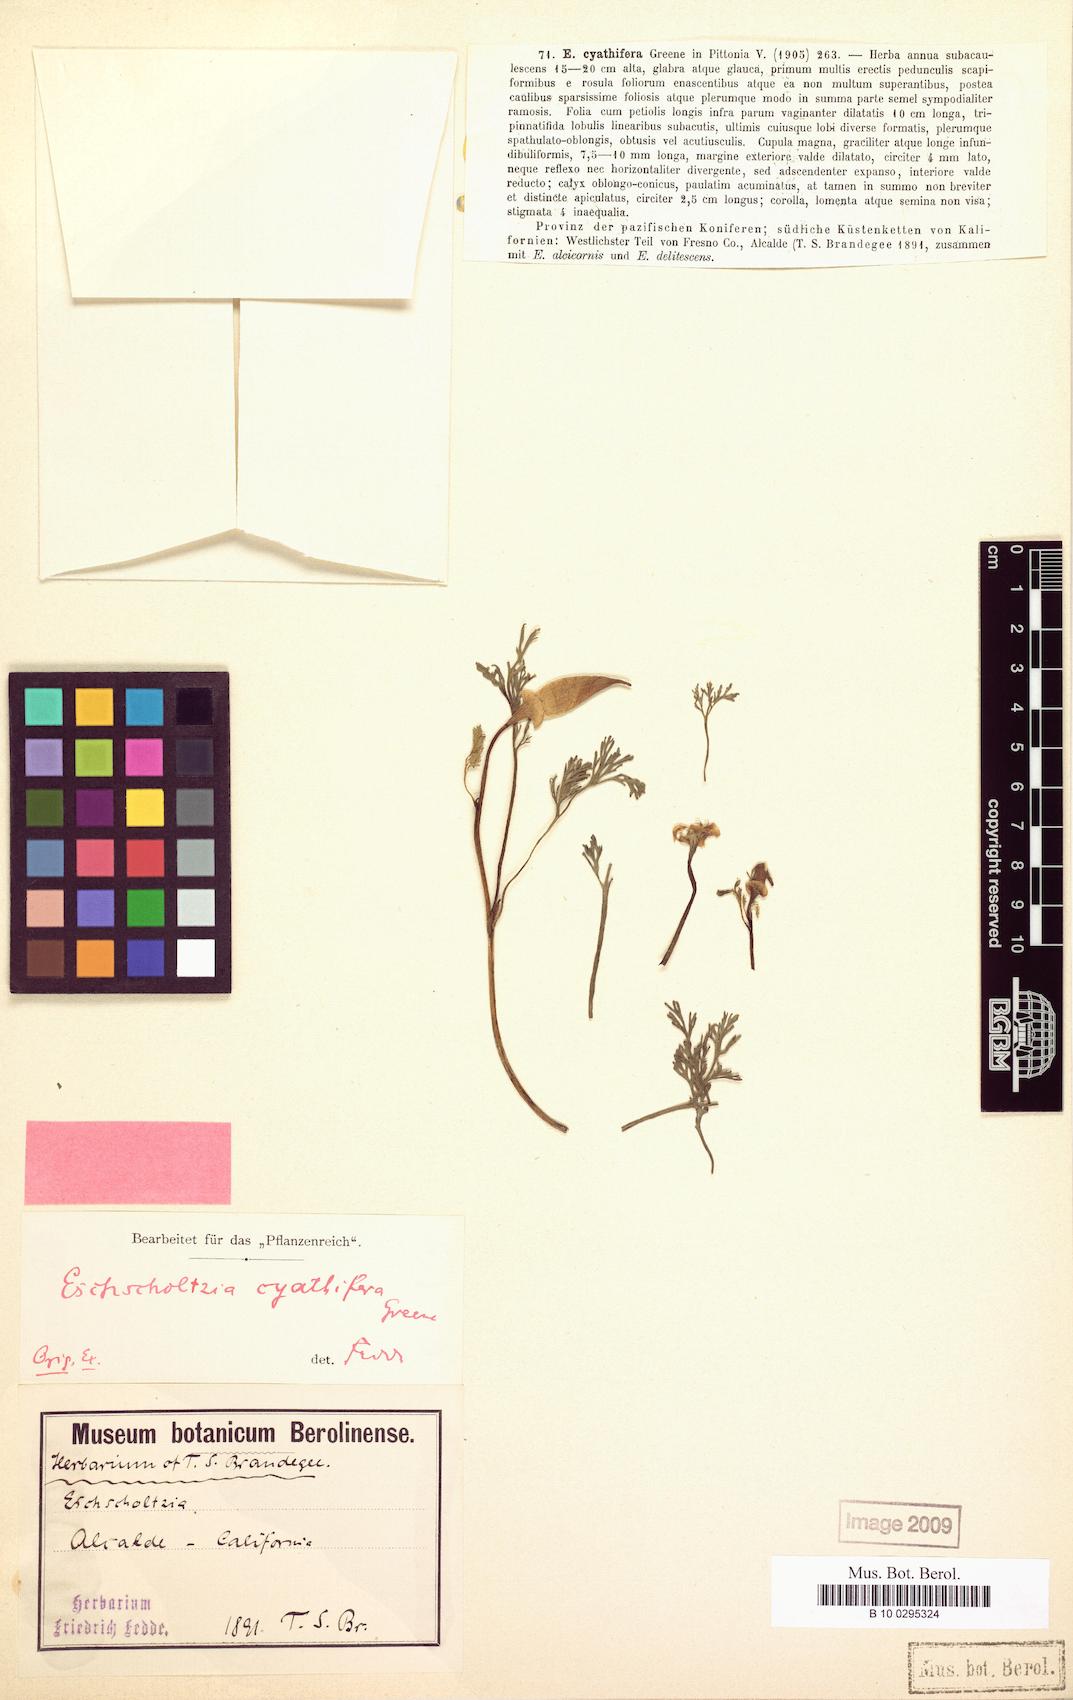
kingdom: Plantae
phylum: Tracheophyta
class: Magnoliopsida
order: Ranunculales
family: Papaveraceae
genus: Eschscholzia
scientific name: Eschscholzia californica
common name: California poppy
